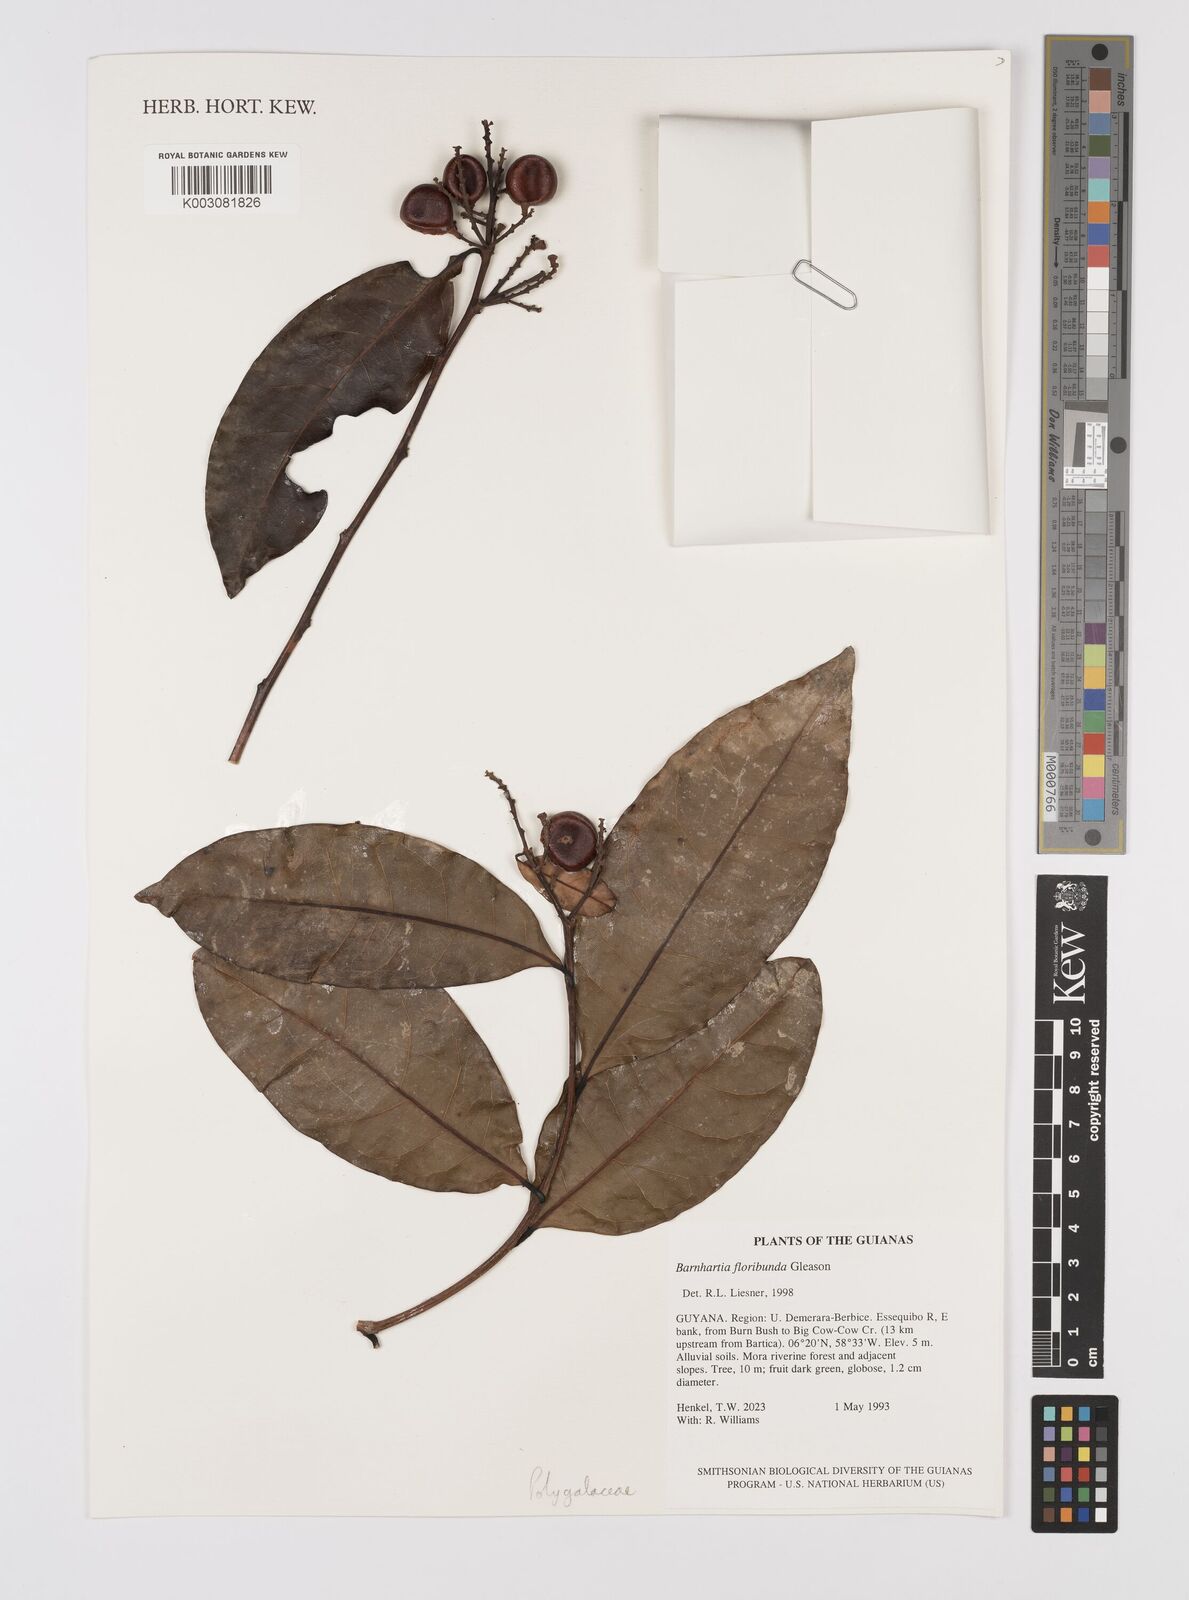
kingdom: Plantae
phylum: Tracheophyta
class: Magnoliopsida
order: Fabales
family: Polygalaceae
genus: Barnhartia
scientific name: Barnhartia floribunda
